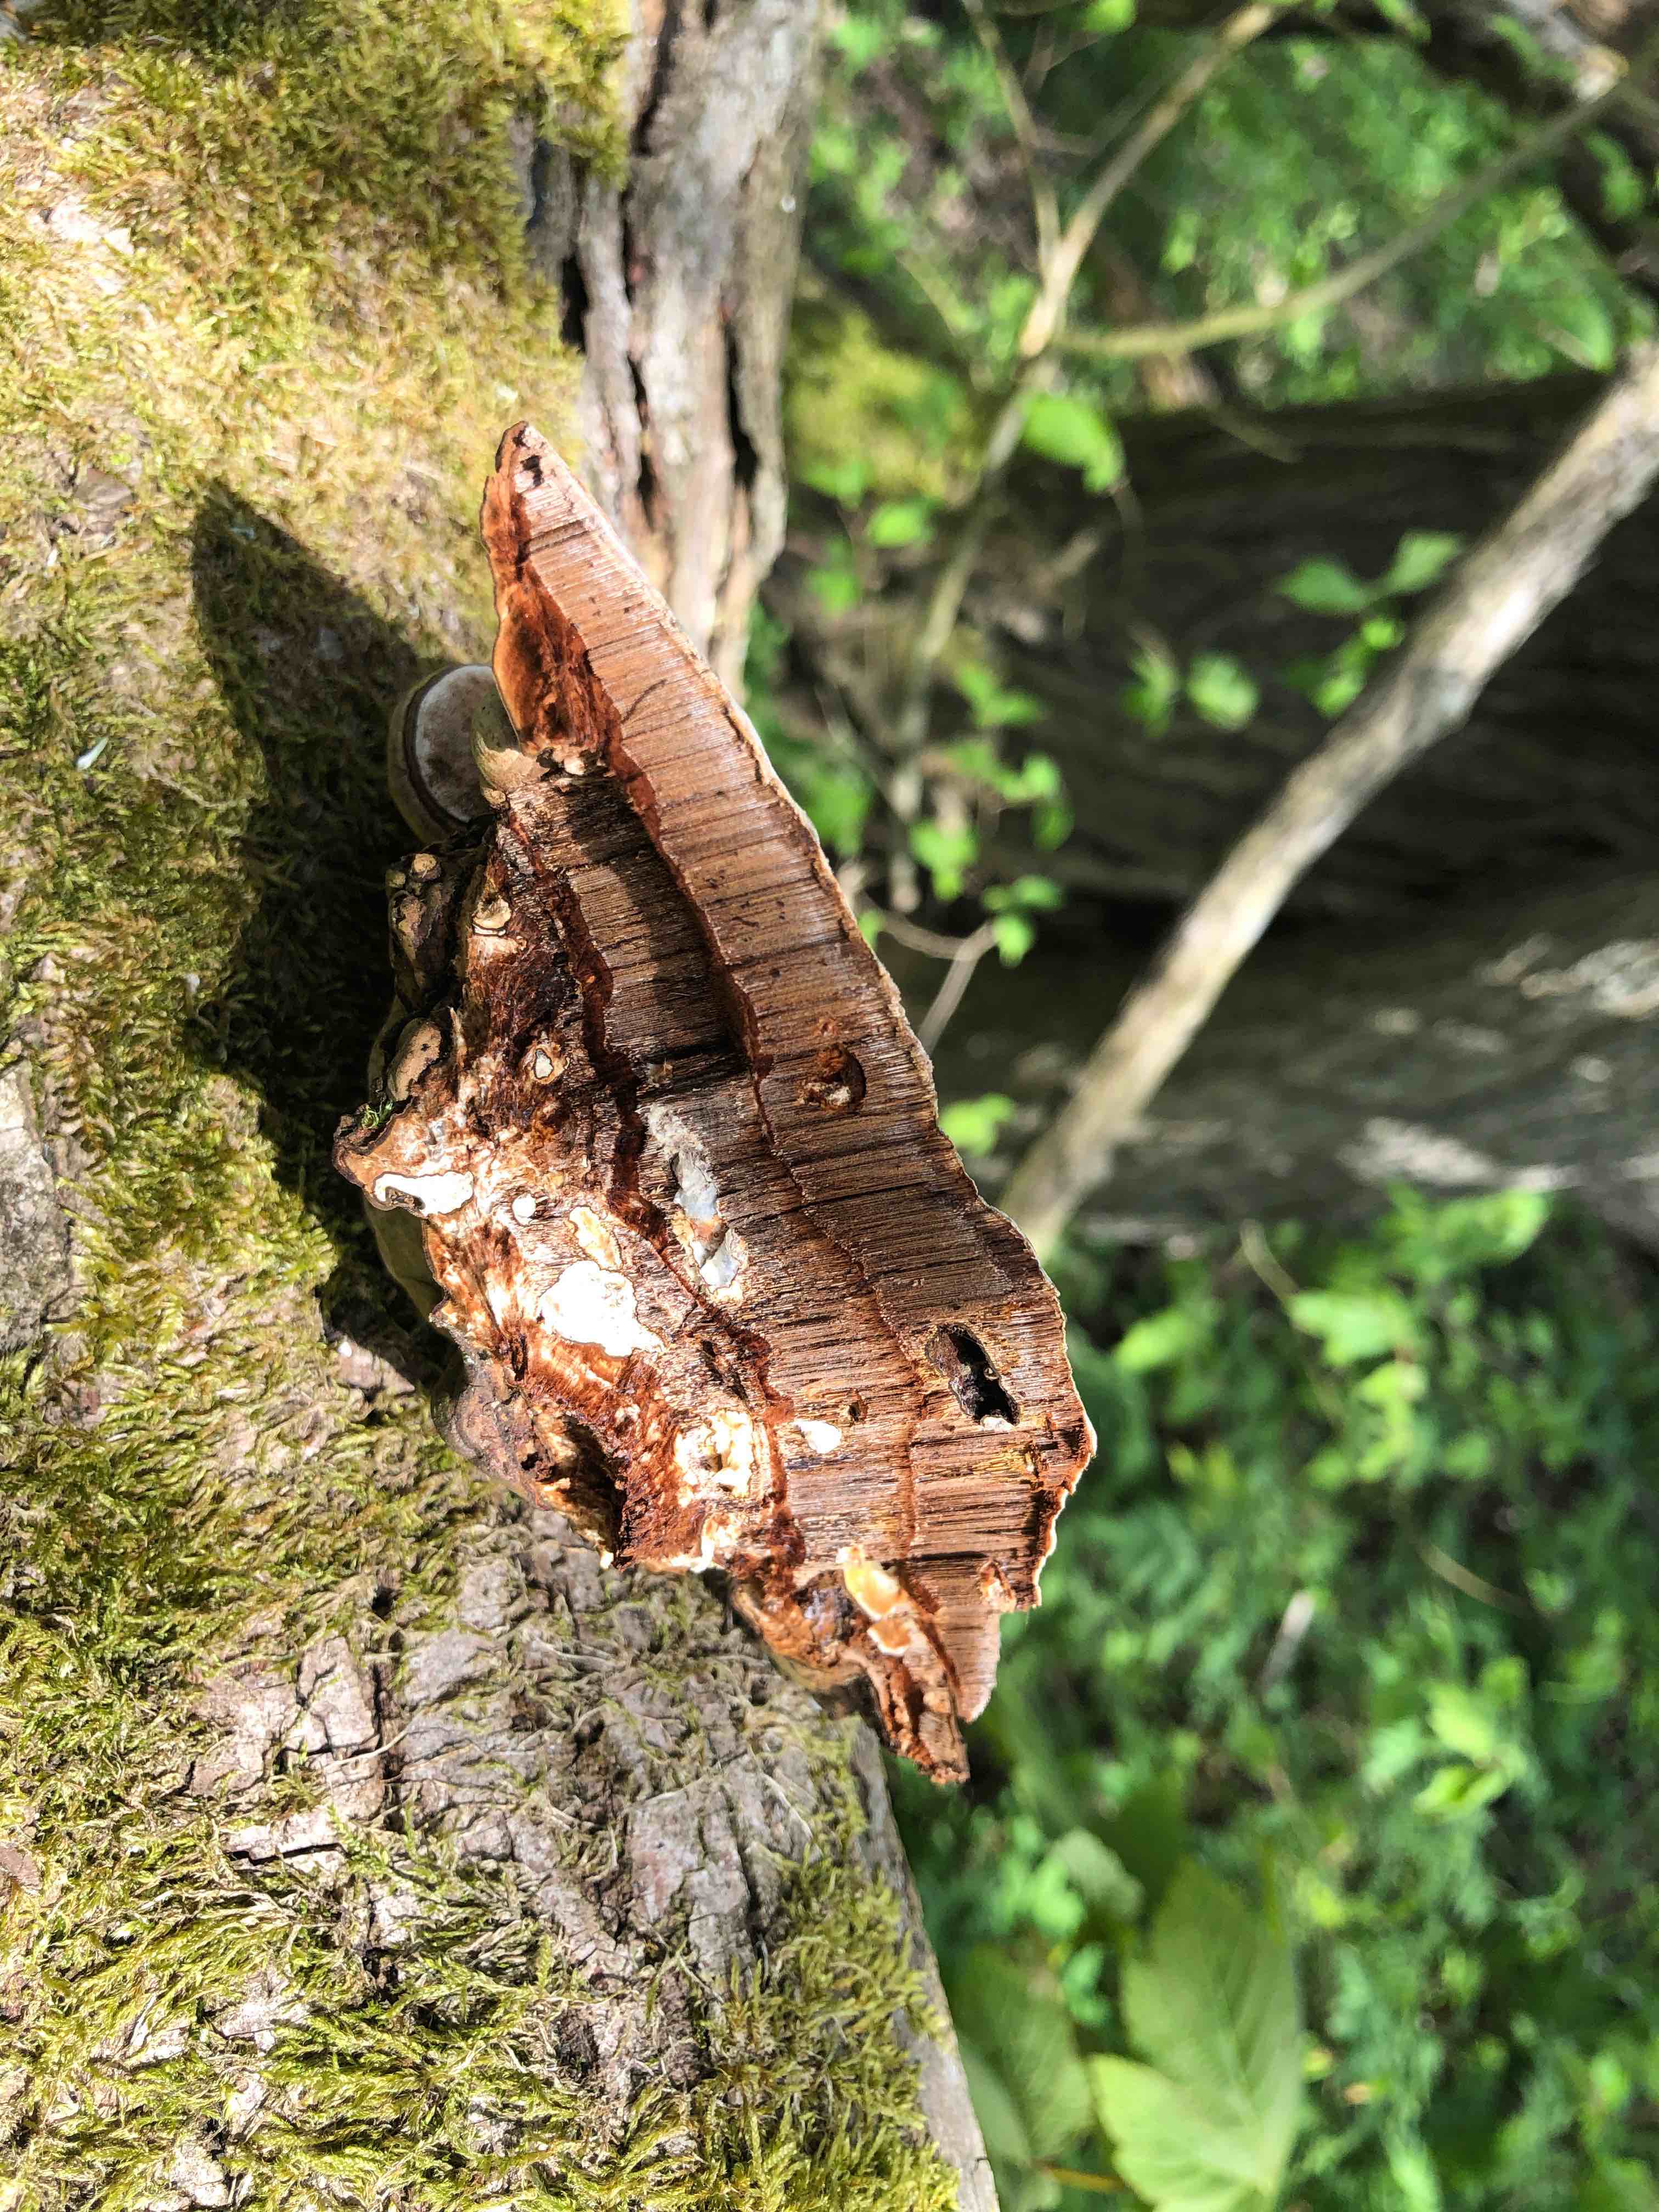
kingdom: Fungi
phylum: Basidiomycota
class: Agaricomycetes
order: Polyporales
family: Polyporaceae
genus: Ganoderma
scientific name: Ganoderma applanatum
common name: flad lakporesvamp
